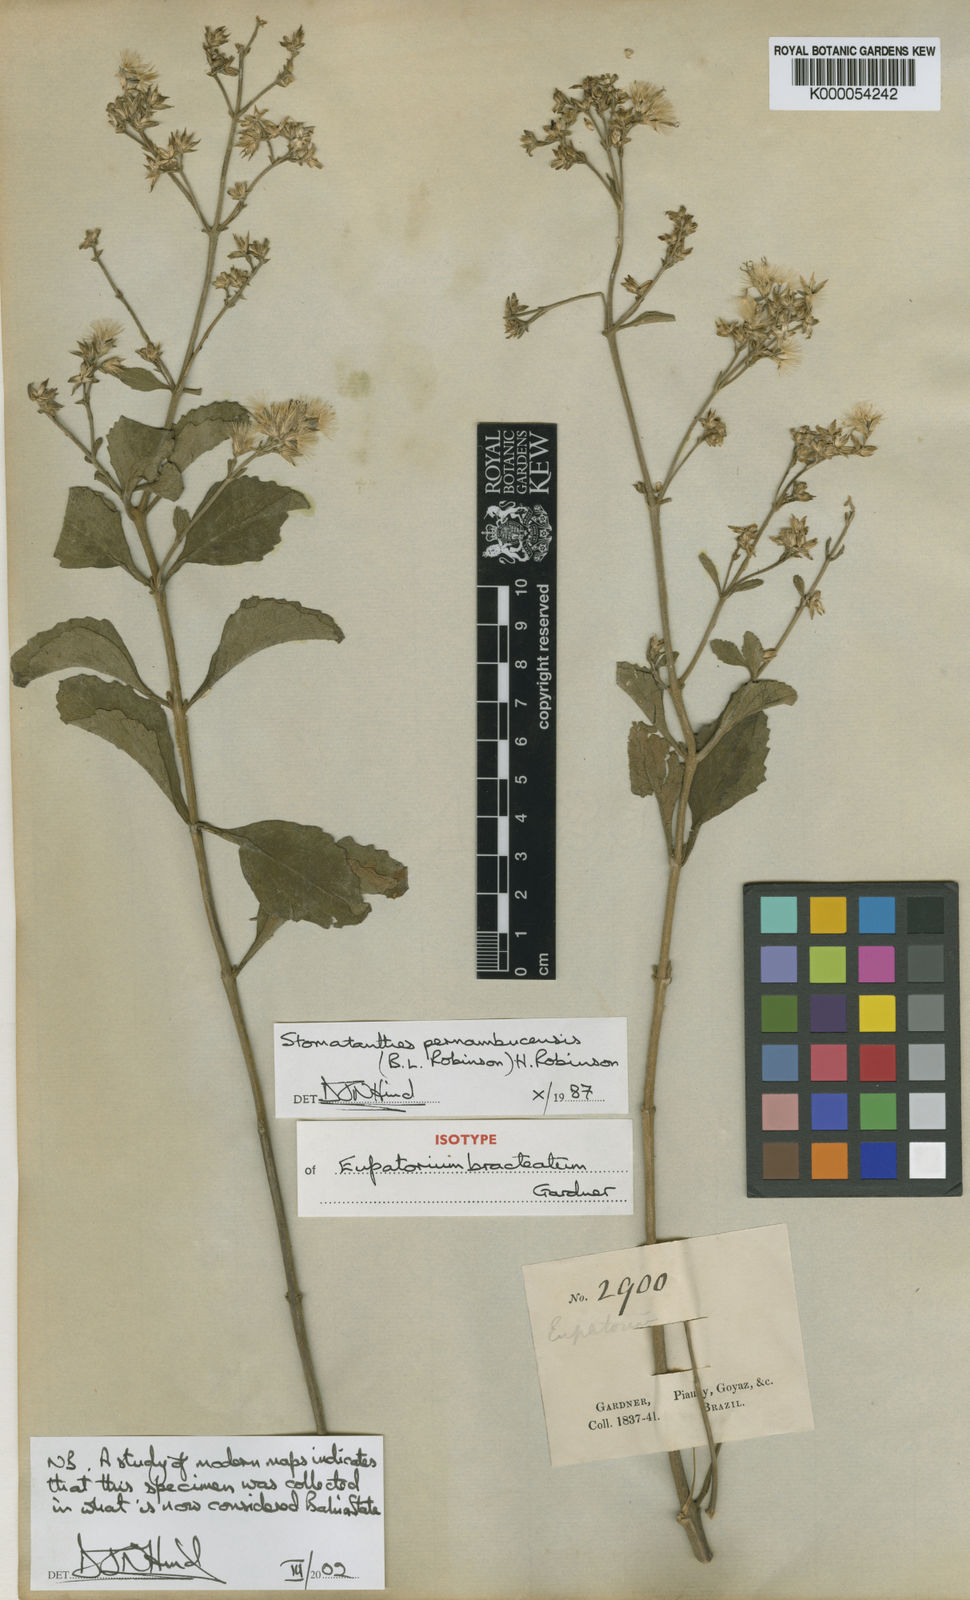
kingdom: Plantae
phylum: Tracheophyta
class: Magnoliopsida
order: Asterales
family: Asteraceae
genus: Stomatanthes
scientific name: Stomatanthes pernambucensis
